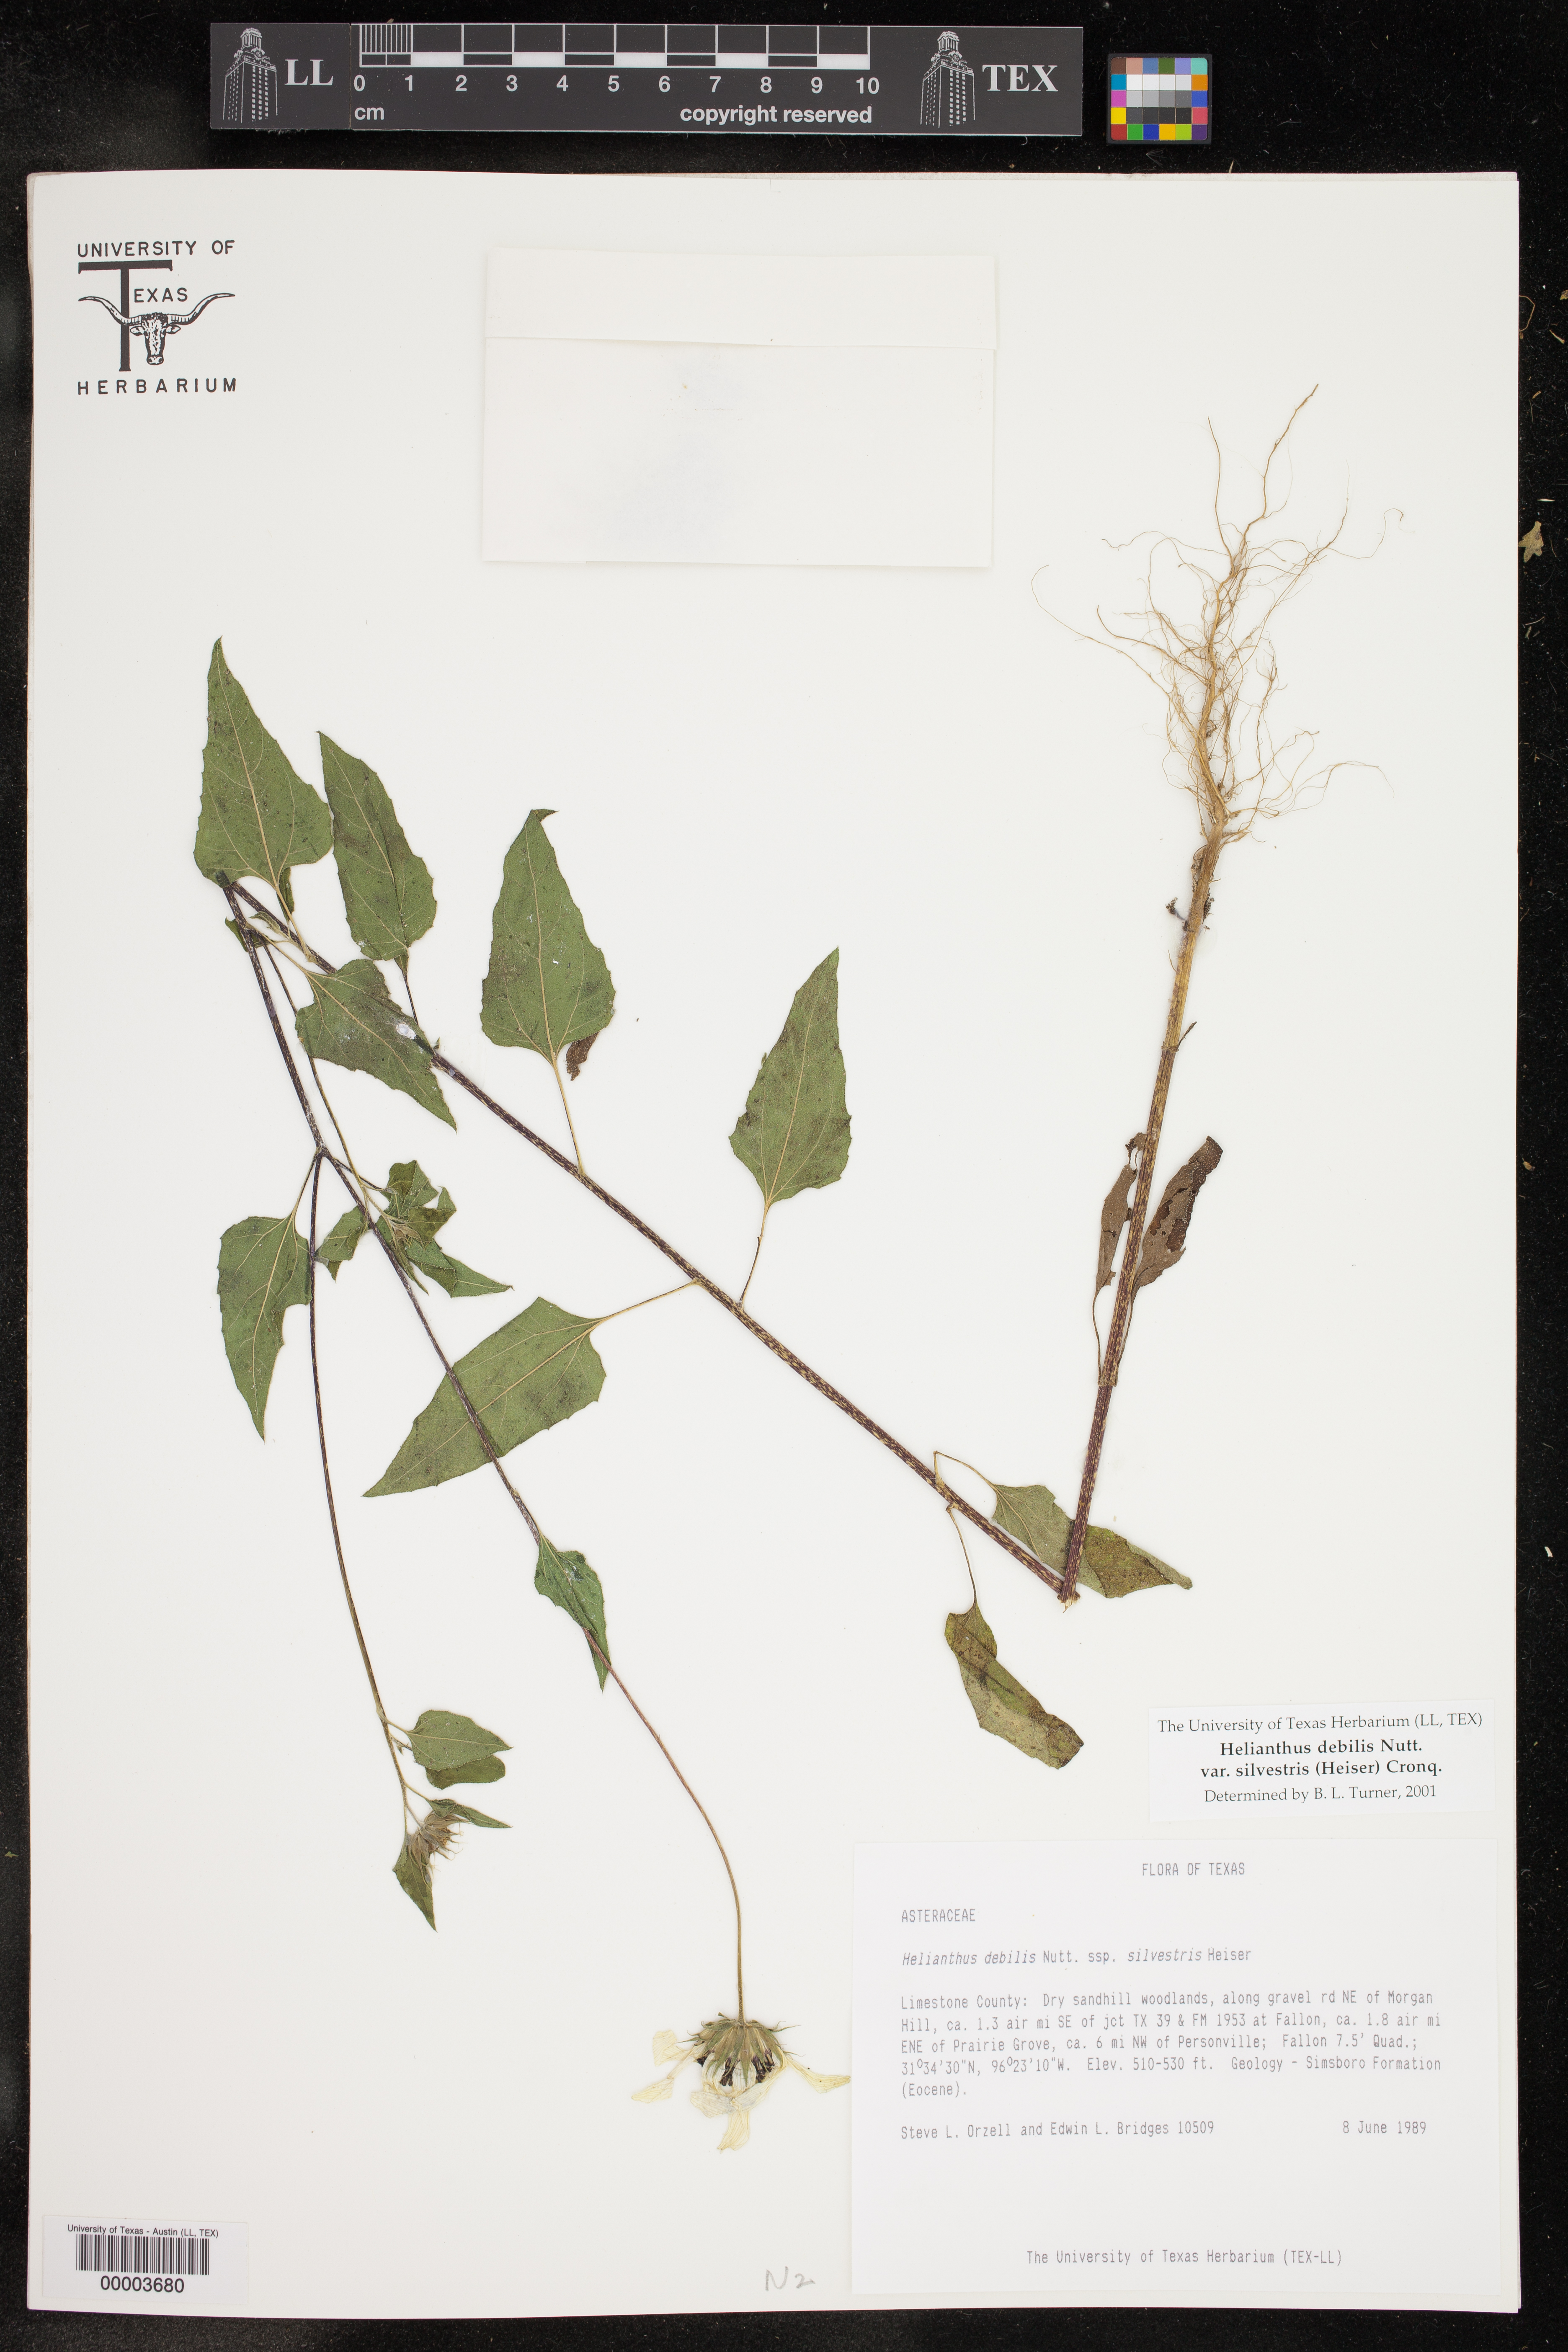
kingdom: Plantae
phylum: Tracheophyta
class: Magnoliopsida
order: Asterales
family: Asteraceae
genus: Helianthus
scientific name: Helianthus debilis
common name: Weak sunflower
